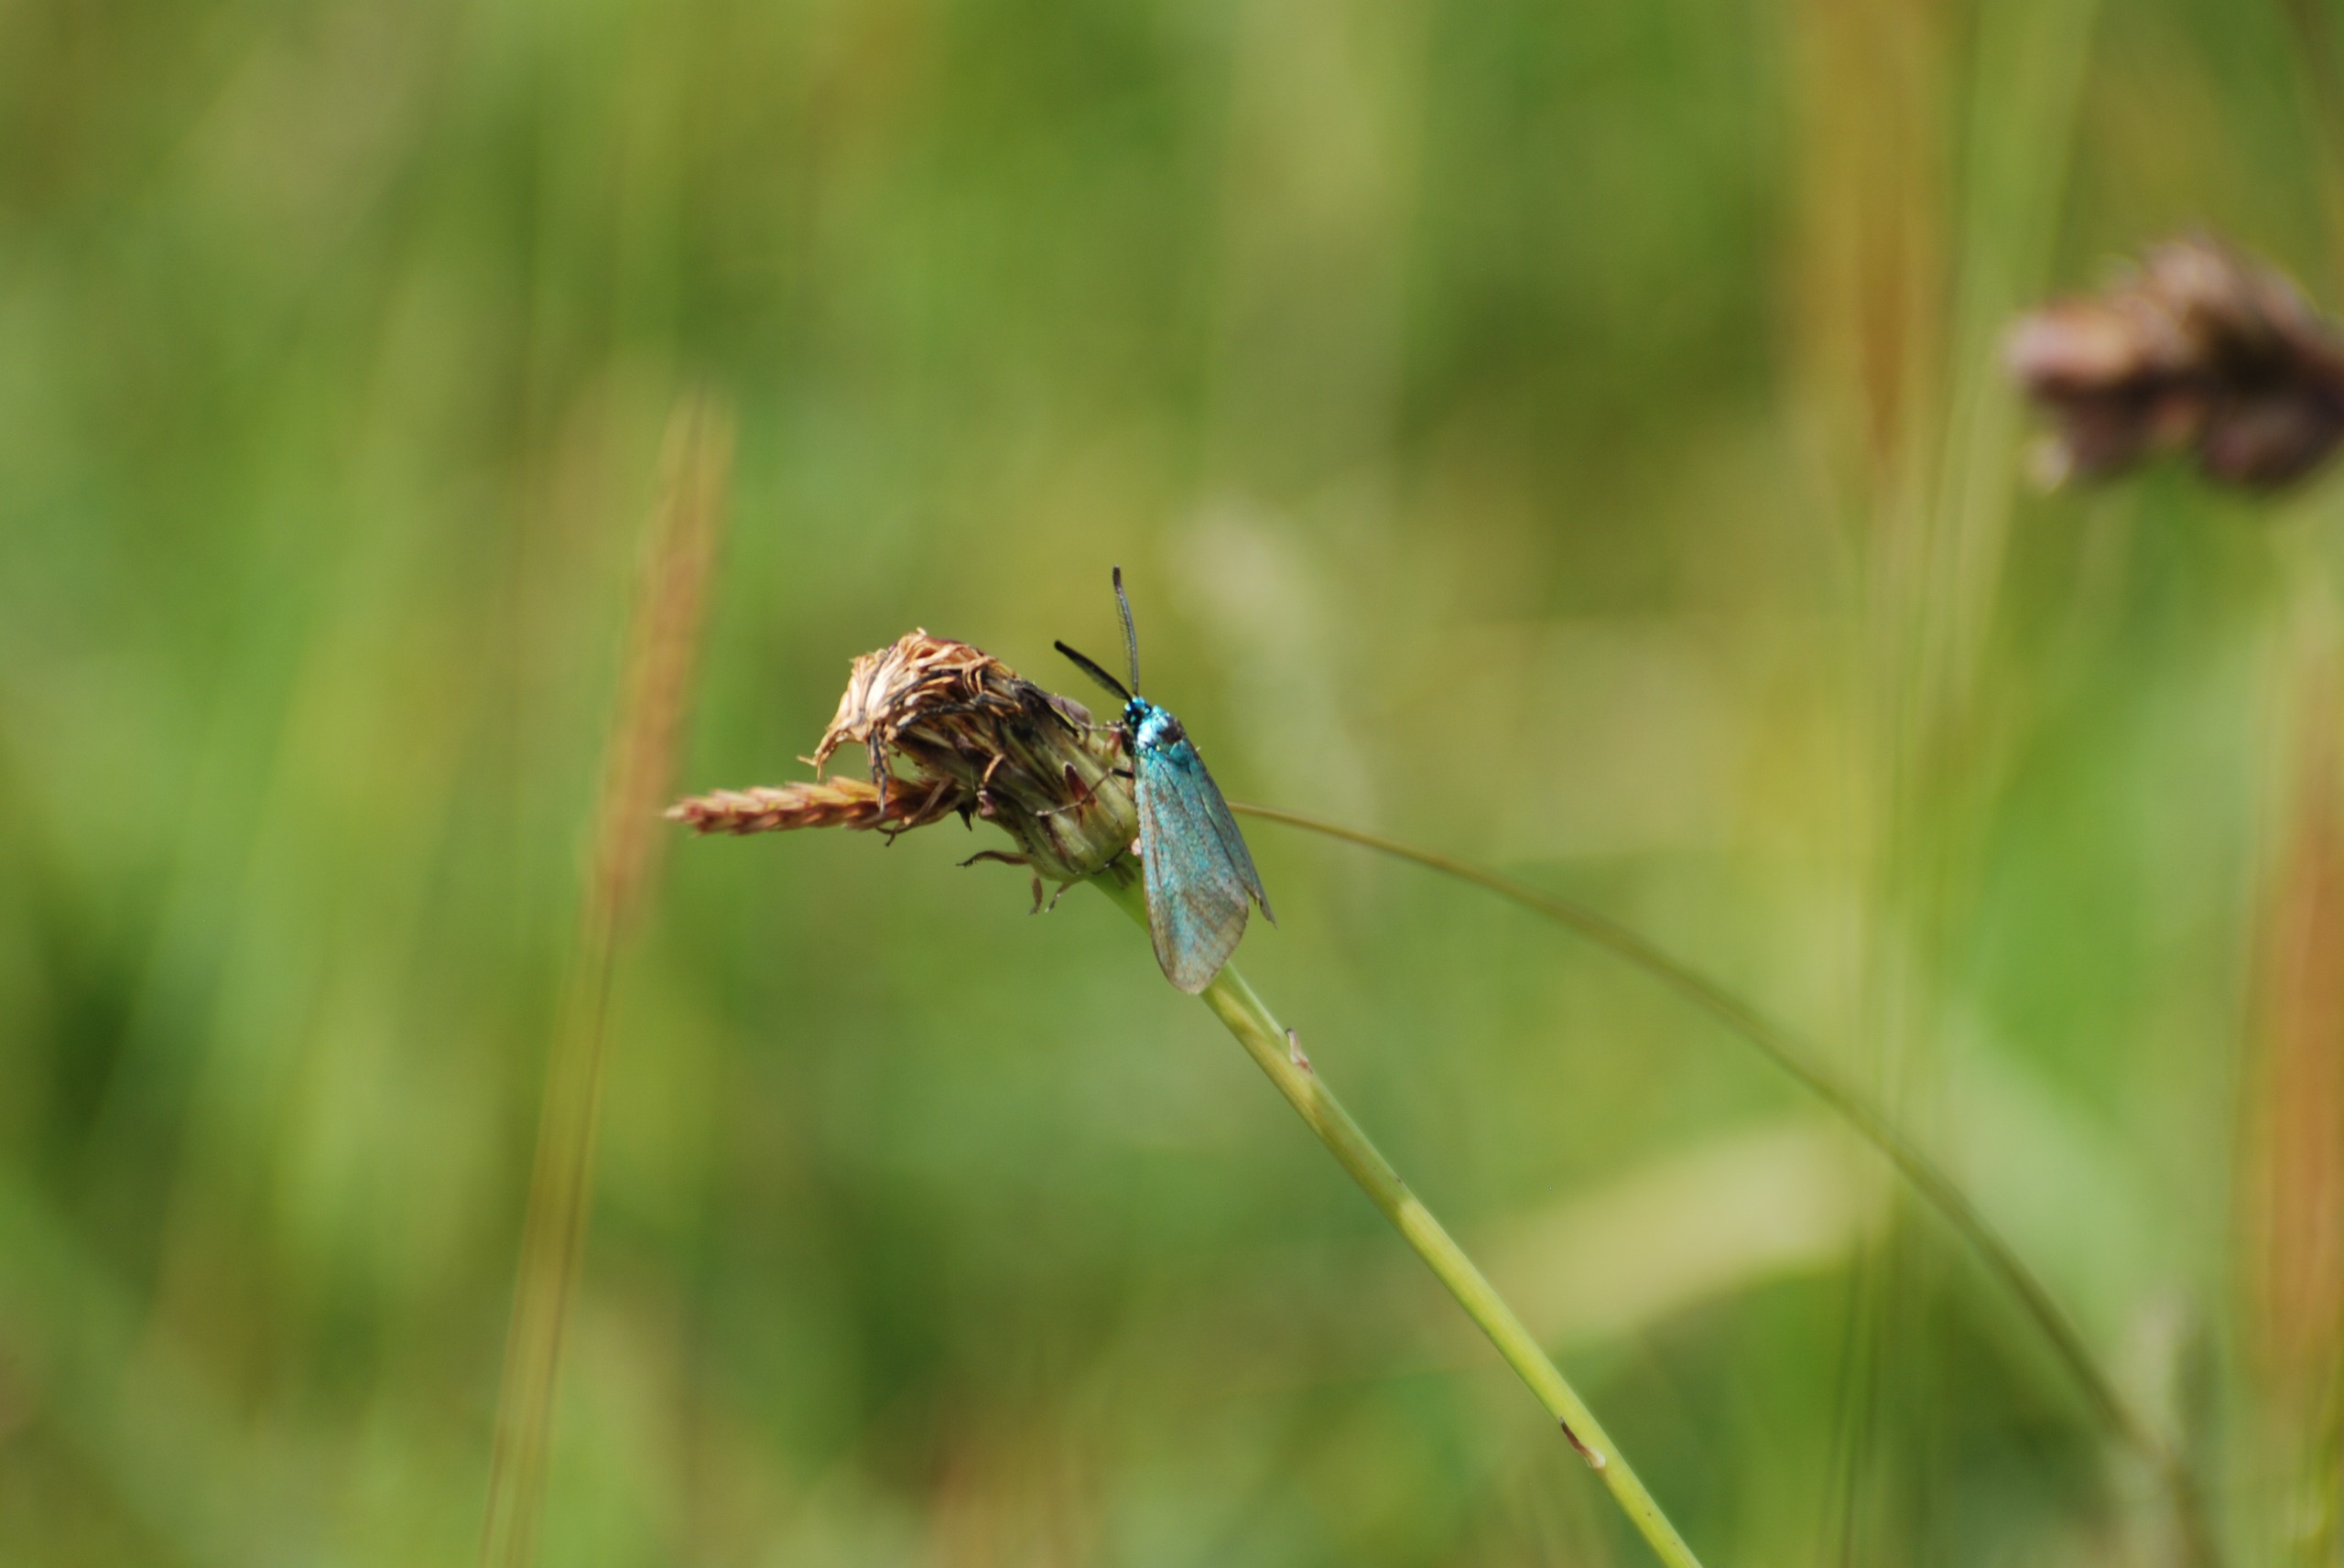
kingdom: Animalia
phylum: Arthropoda
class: Insecta
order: Lepidoptera
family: Zygaenidae
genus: Adscita
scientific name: Adscita statices
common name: Metalvinge
